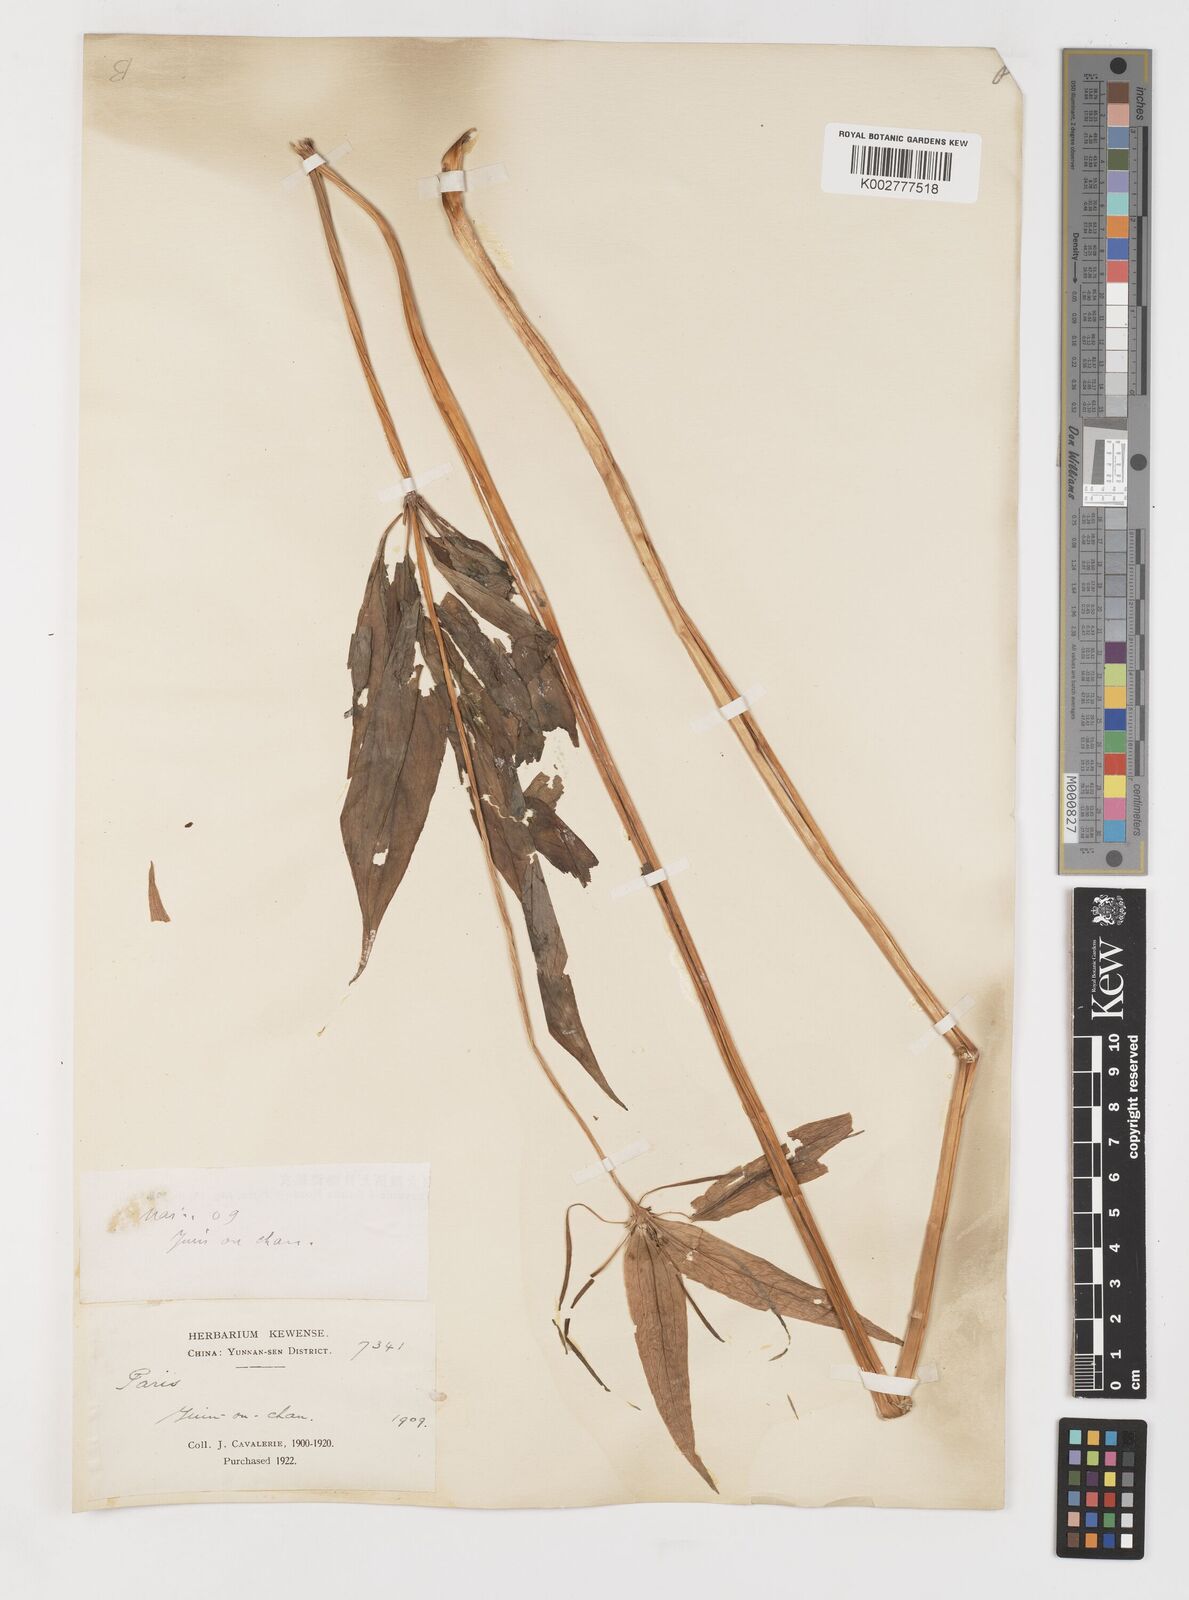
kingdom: Plantae
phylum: Tracheophyta
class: Liliopsida
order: Liliales
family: Melanthiaceae
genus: Paris
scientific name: Paris delavayi
